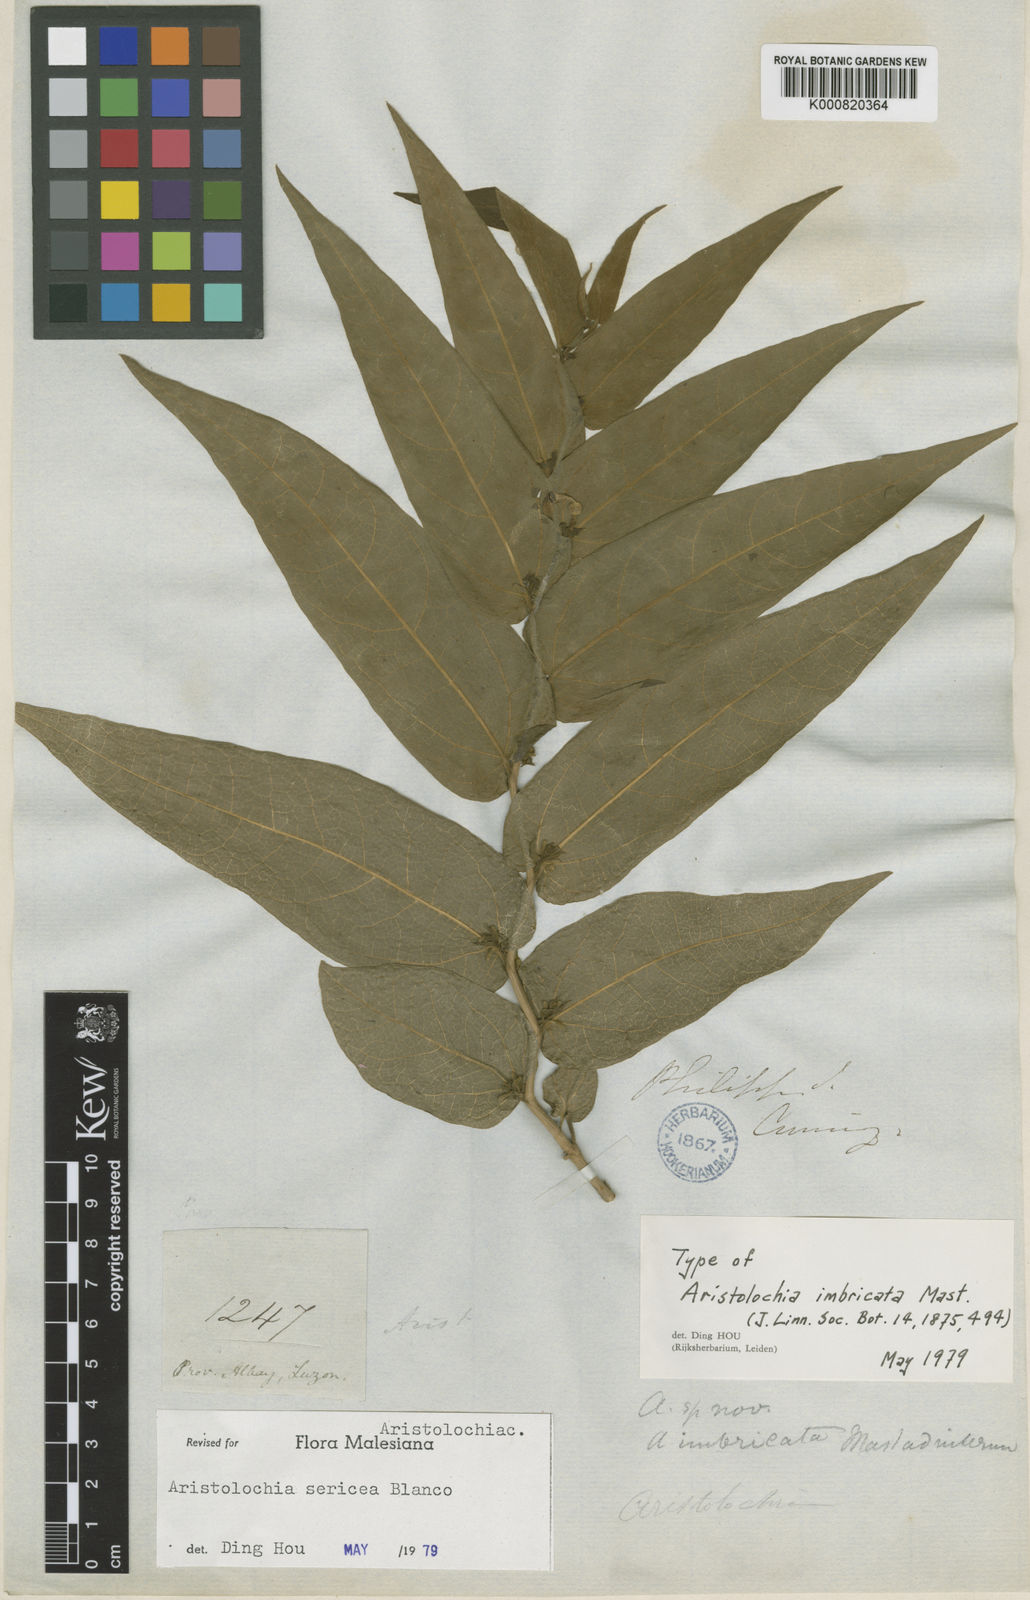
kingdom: Plantae
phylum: Tracheophyta
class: Magnoliopsida
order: Piperales
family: Aristolochiaceae
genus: Aristolochia
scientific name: Aristolochia sericea
